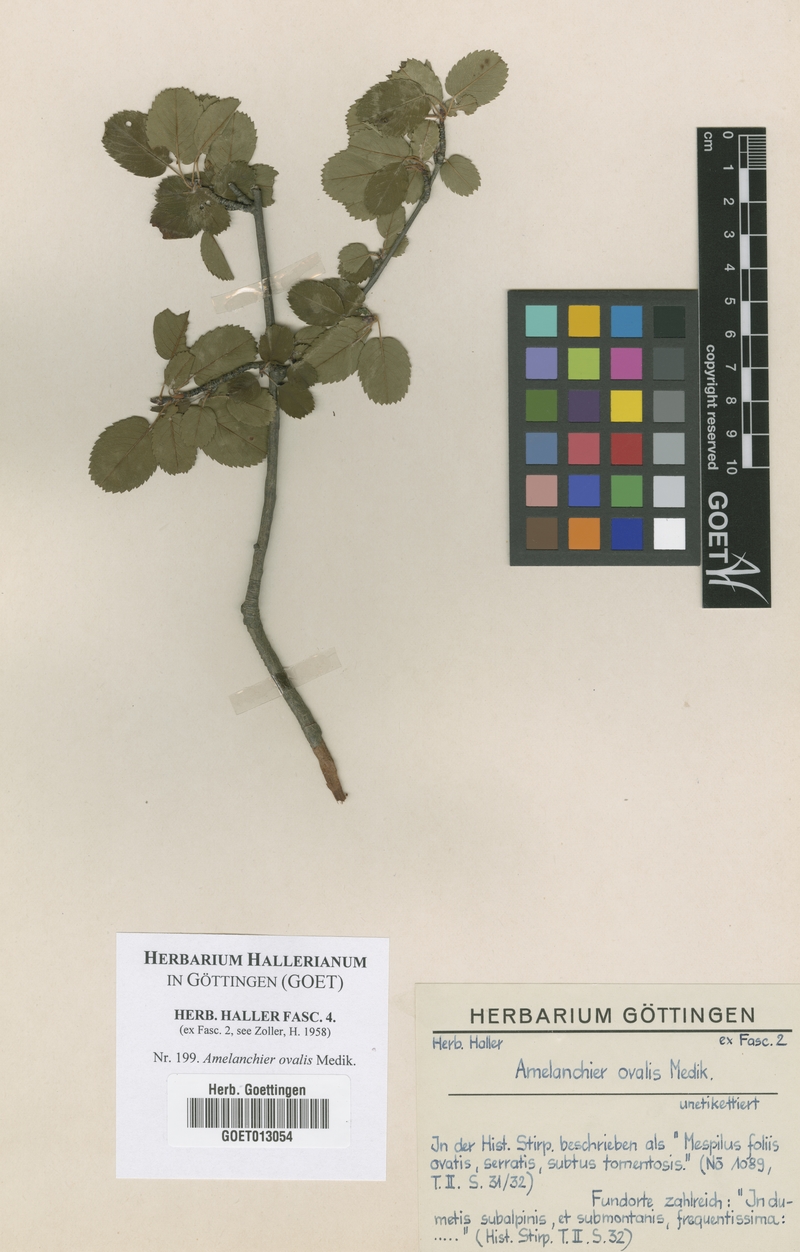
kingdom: Plantae
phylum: Tracheophyta
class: Magnoliopsida
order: Rosales
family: Rosaceae
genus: Amelanchier
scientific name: Amelanchier ovalis
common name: Serviceberry
